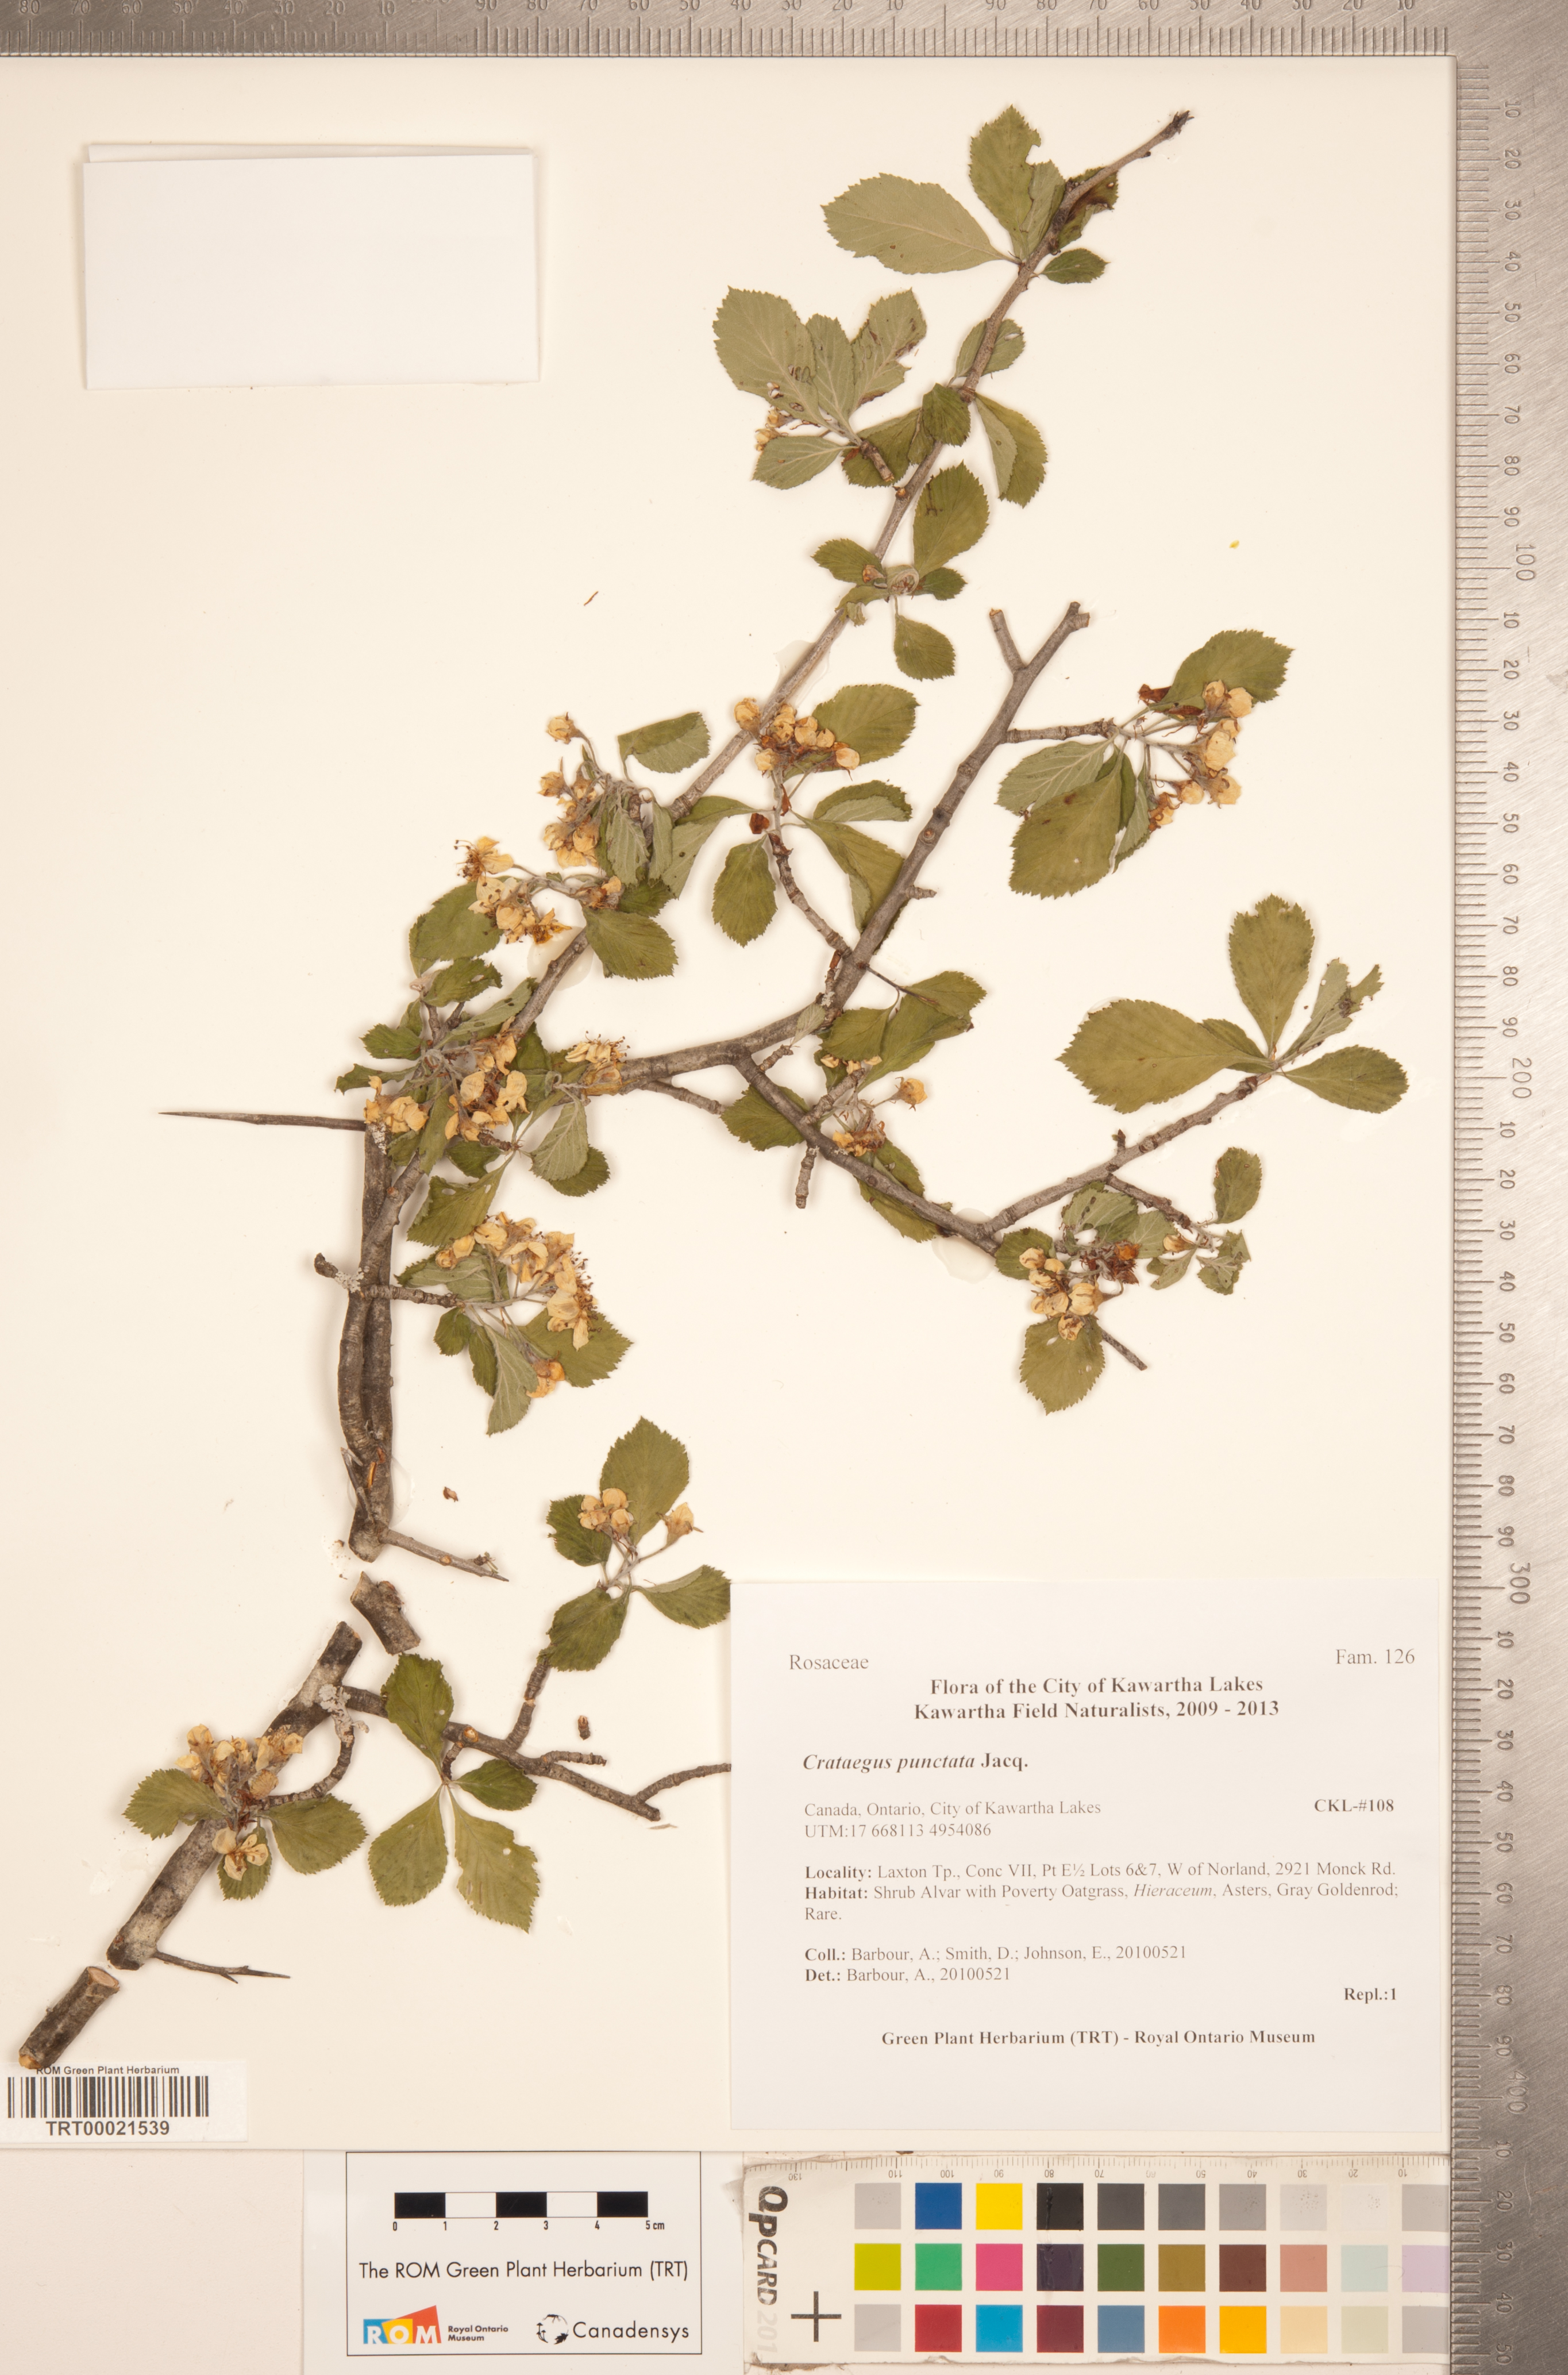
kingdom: Plantae
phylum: Tracheophyta
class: Magnoliopsida
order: Rosales
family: Rosaceae
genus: Crataegus
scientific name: Crataegus punctata
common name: Dotted hawthorn
